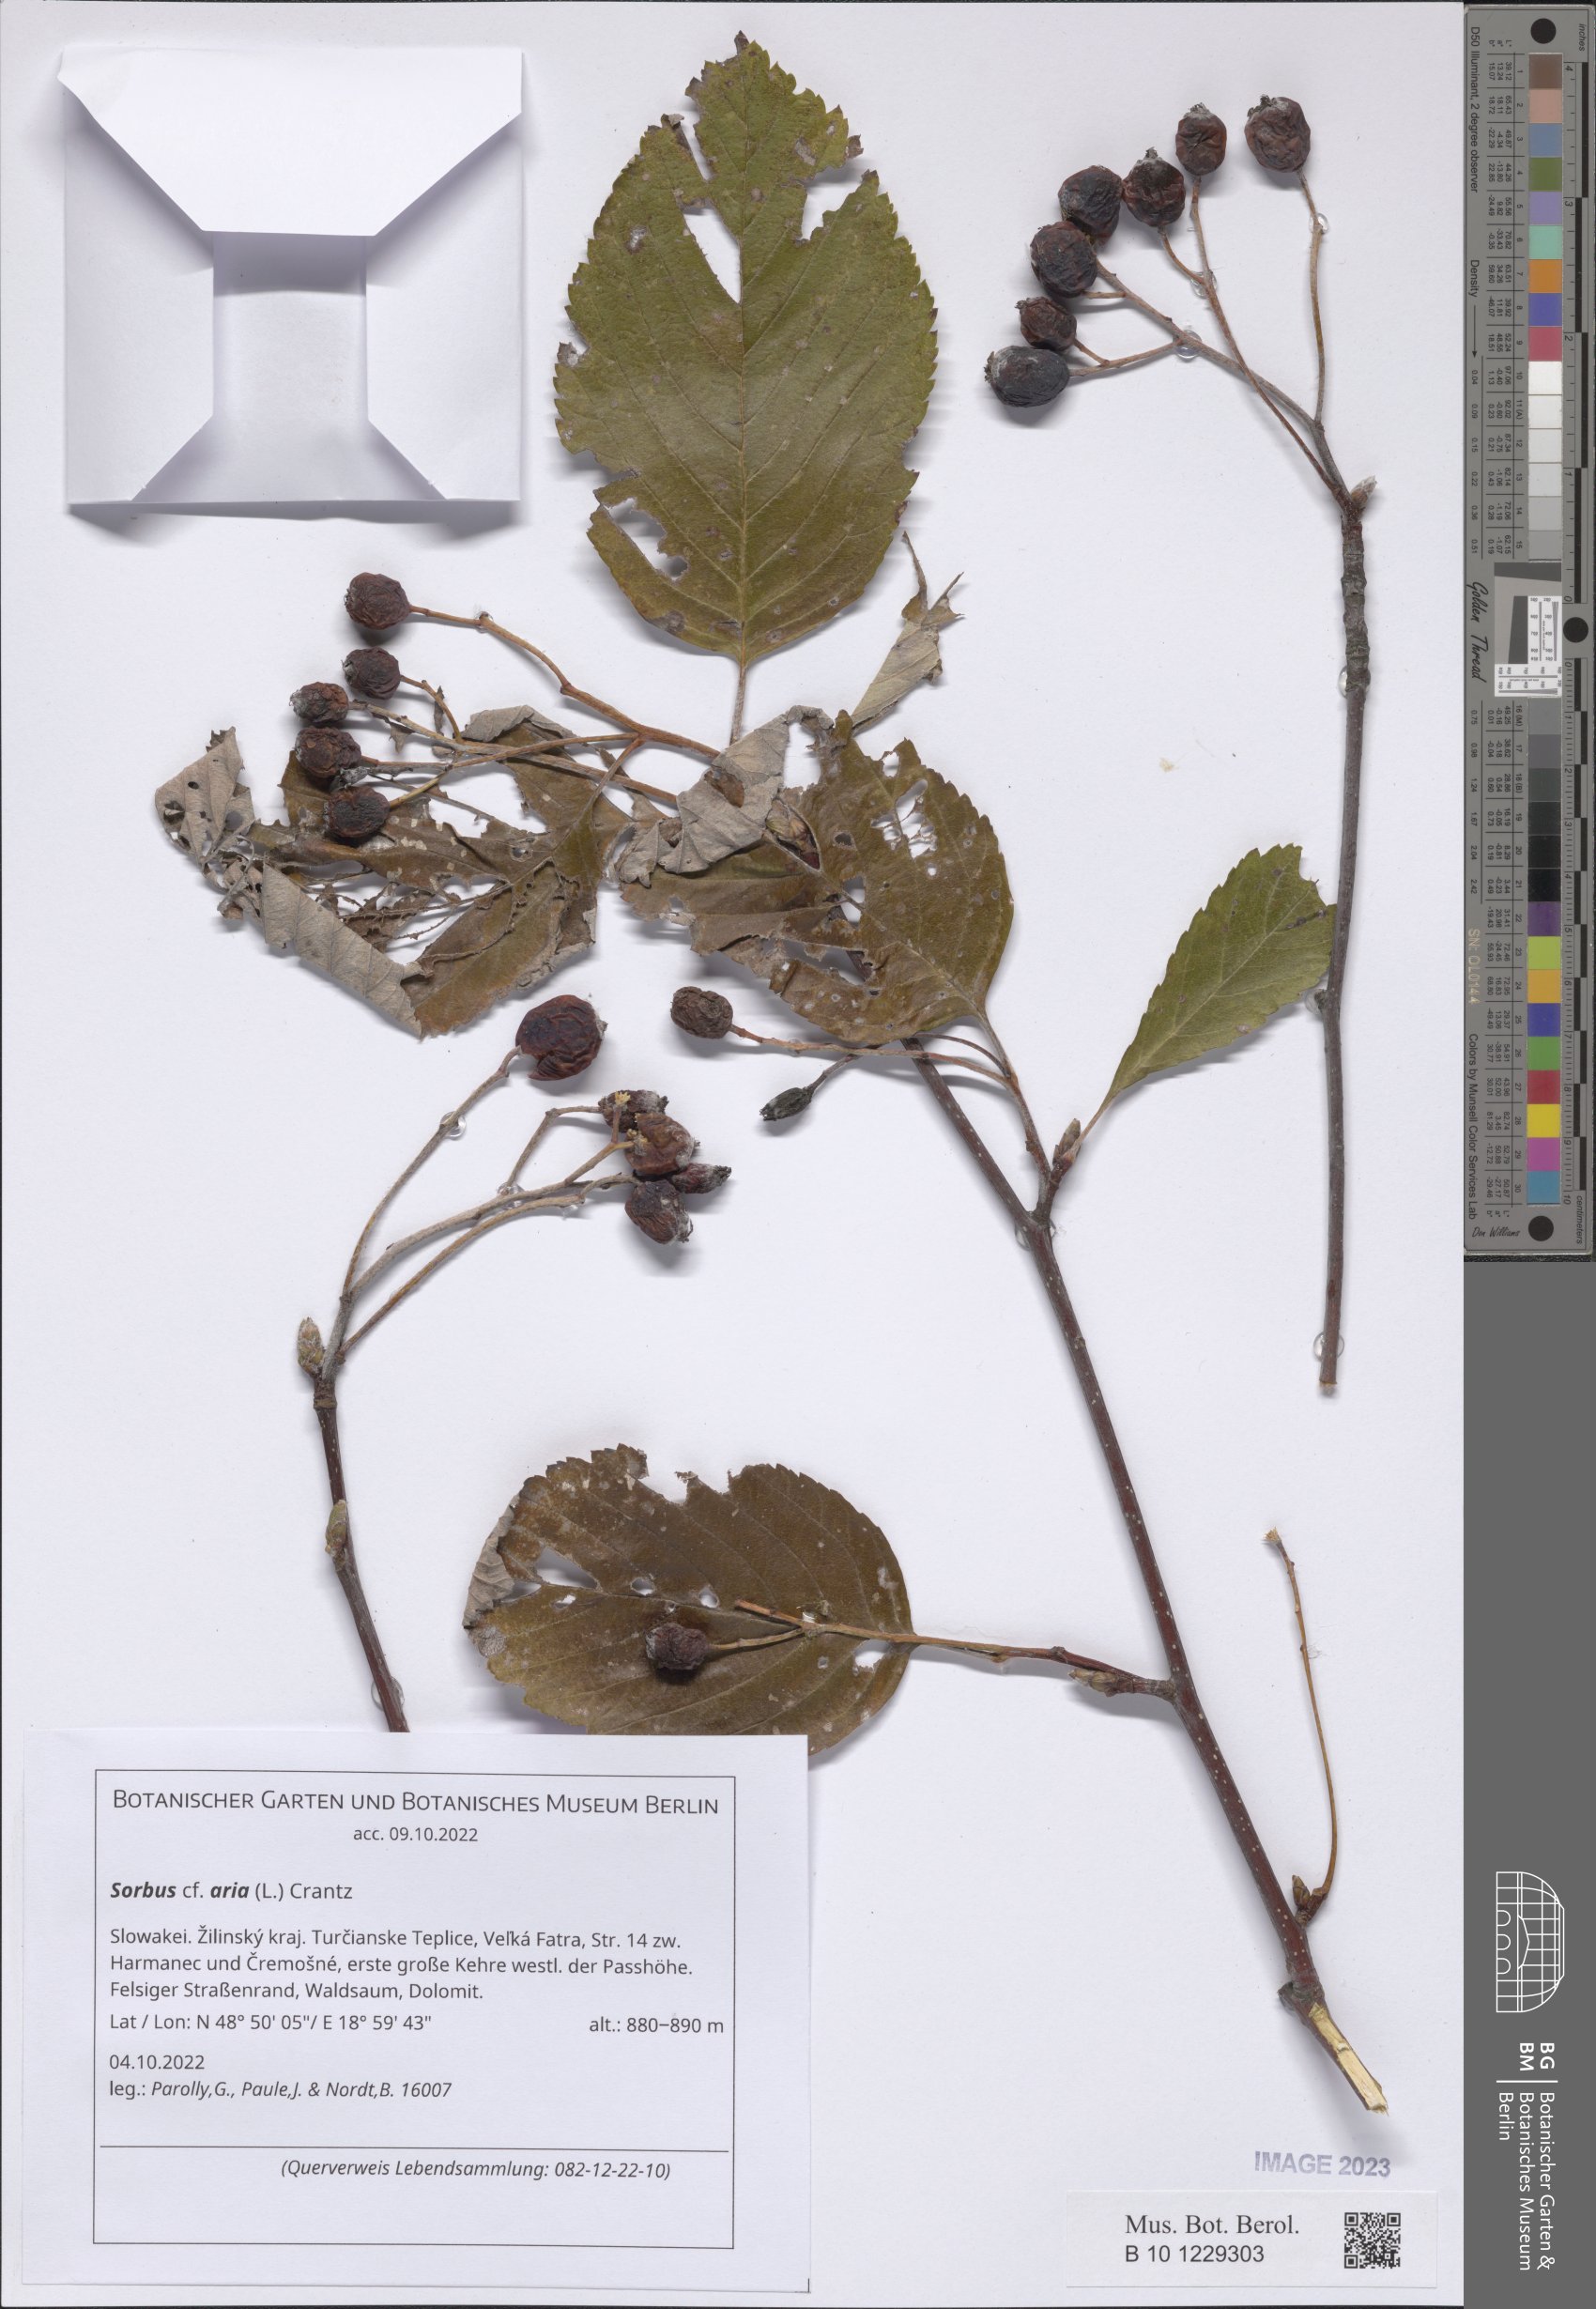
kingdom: Plantae
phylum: Tracheophyta
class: Magnoliopsida
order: Rosales
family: Rosaceae
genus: Aria
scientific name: Aria edulis
